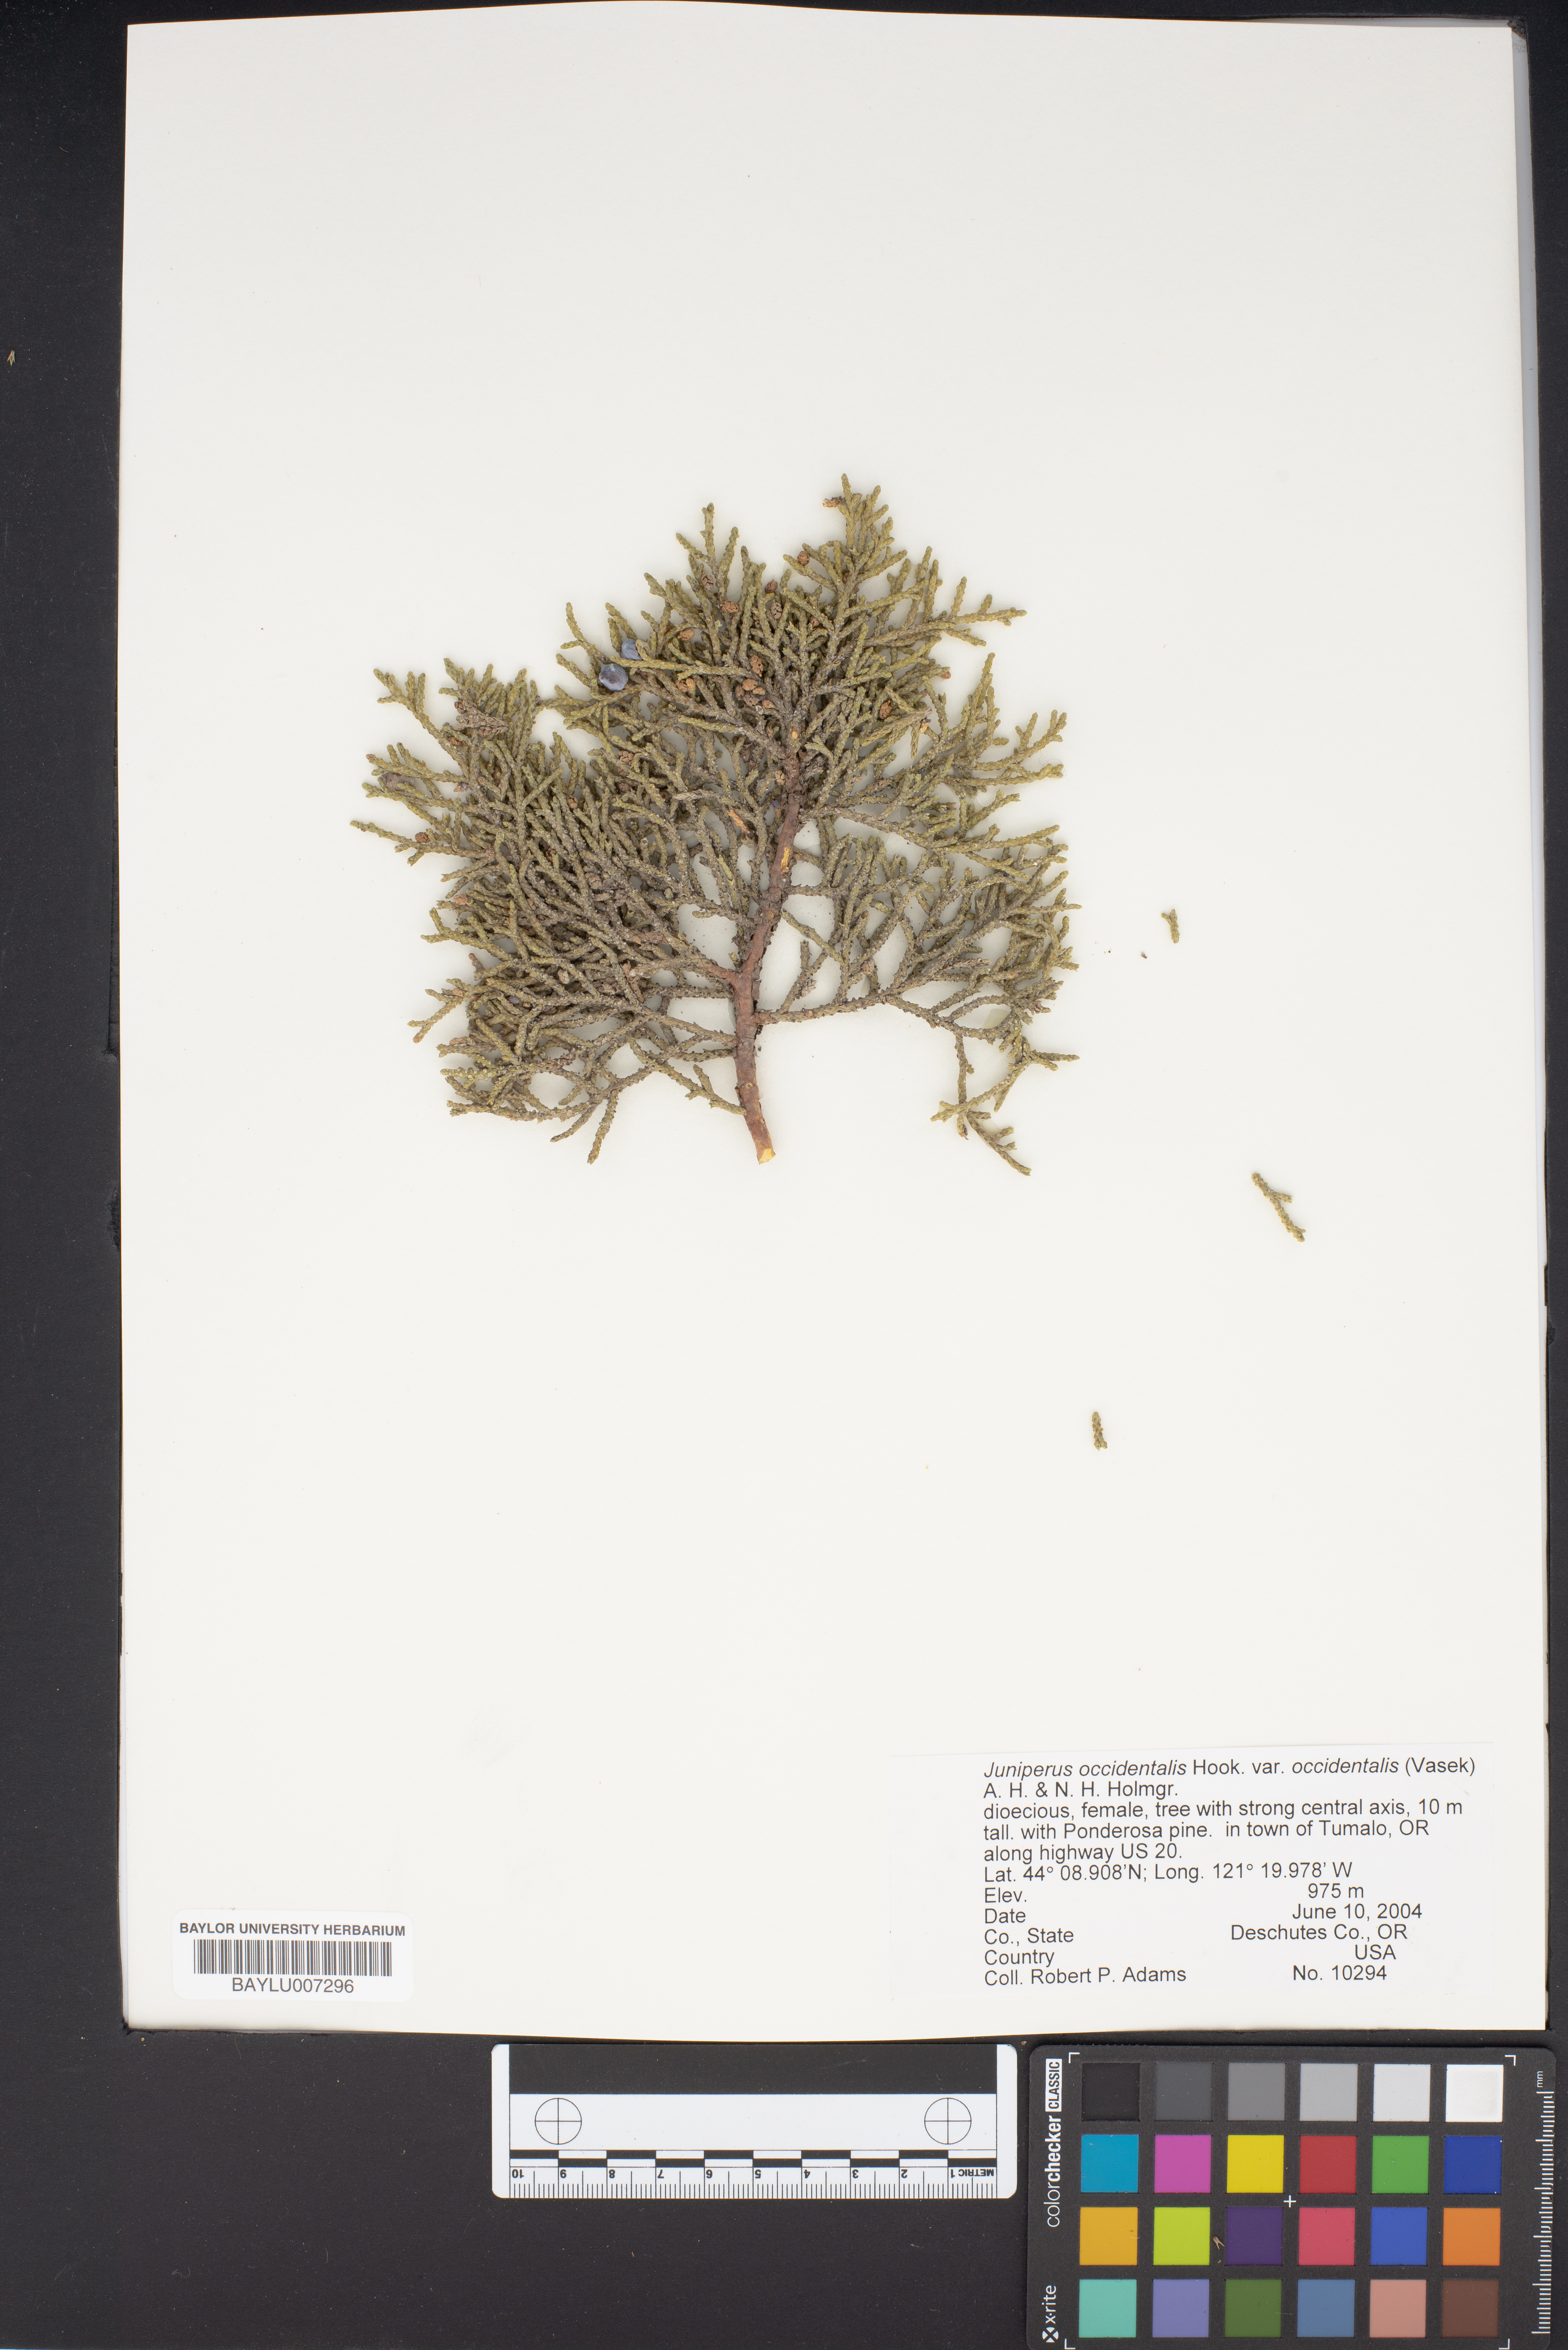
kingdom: Plantae
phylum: Tracheophyta
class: Pinopsida
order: Pinales
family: Cupressaceae
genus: Juniperus
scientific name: Juniperus occidentalis
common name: Western juniper
